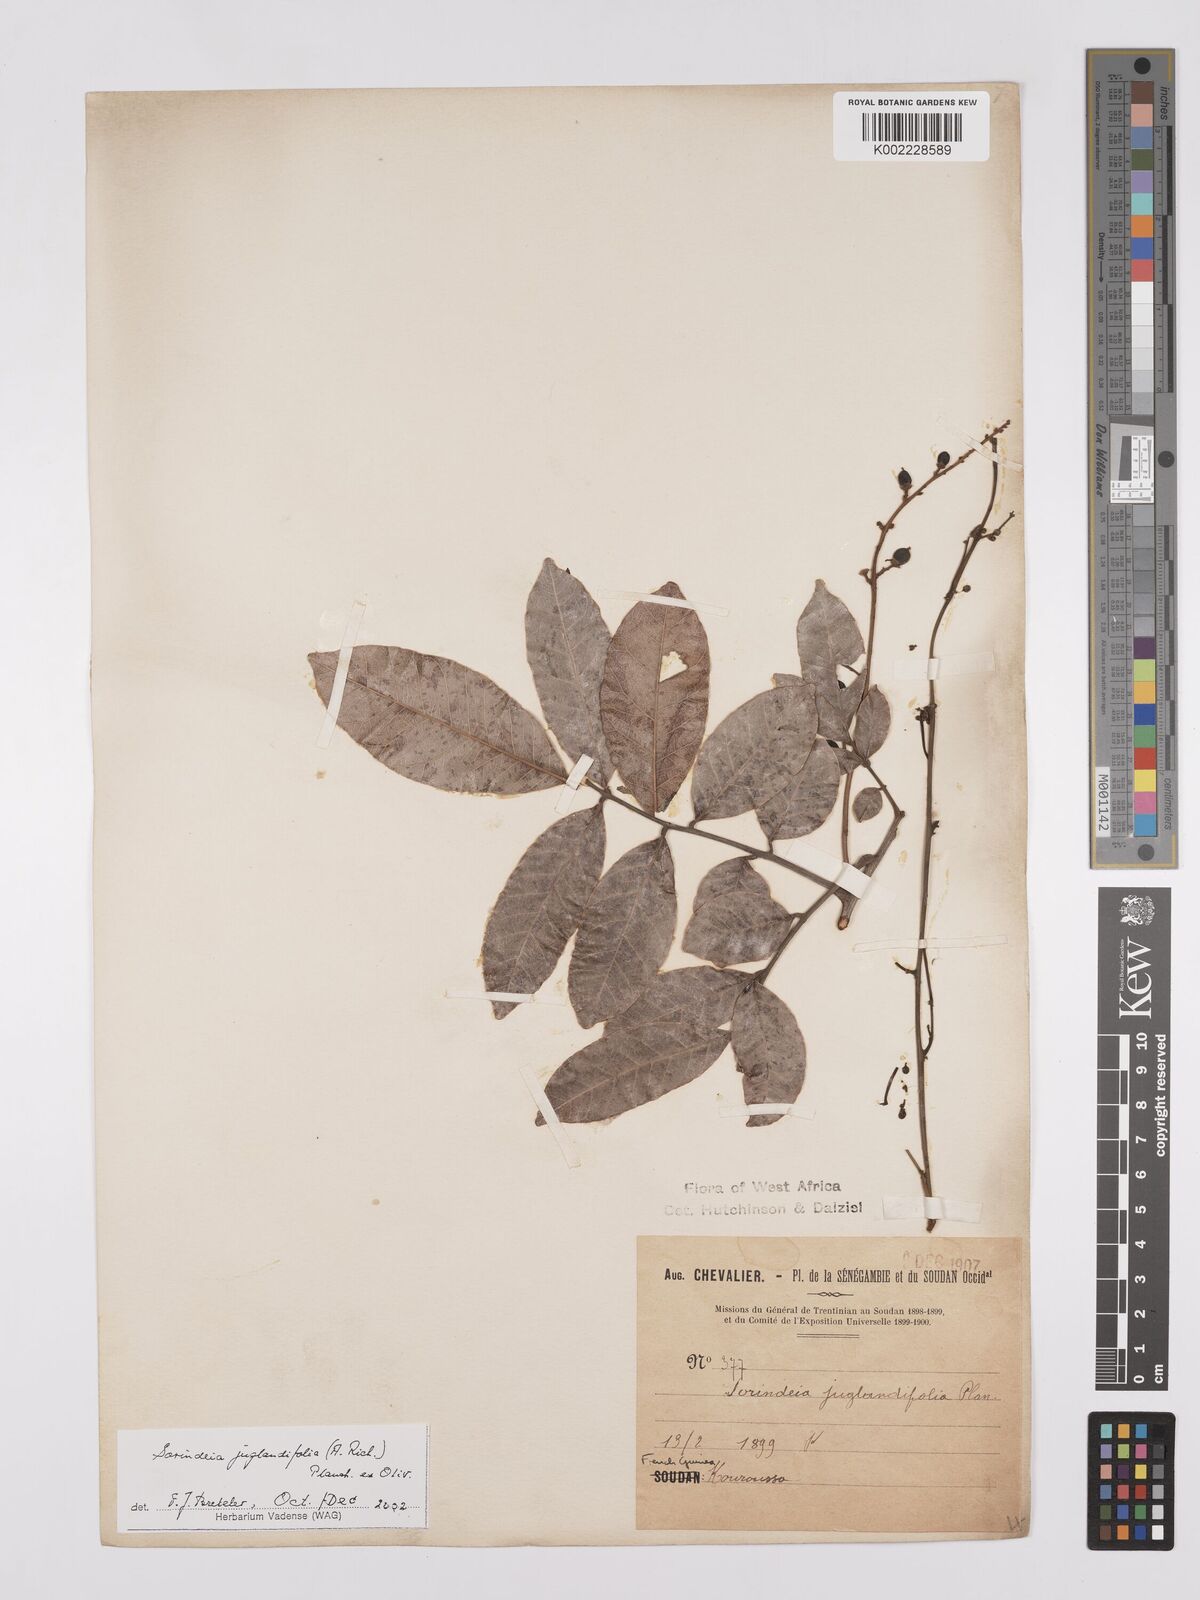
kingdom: Plantae
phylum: Tracheophyta
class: Magnoliopsida
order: Sapindales
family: Anacardiaceae
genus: Sorindeia
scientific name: Sorindeia juglandifolia
